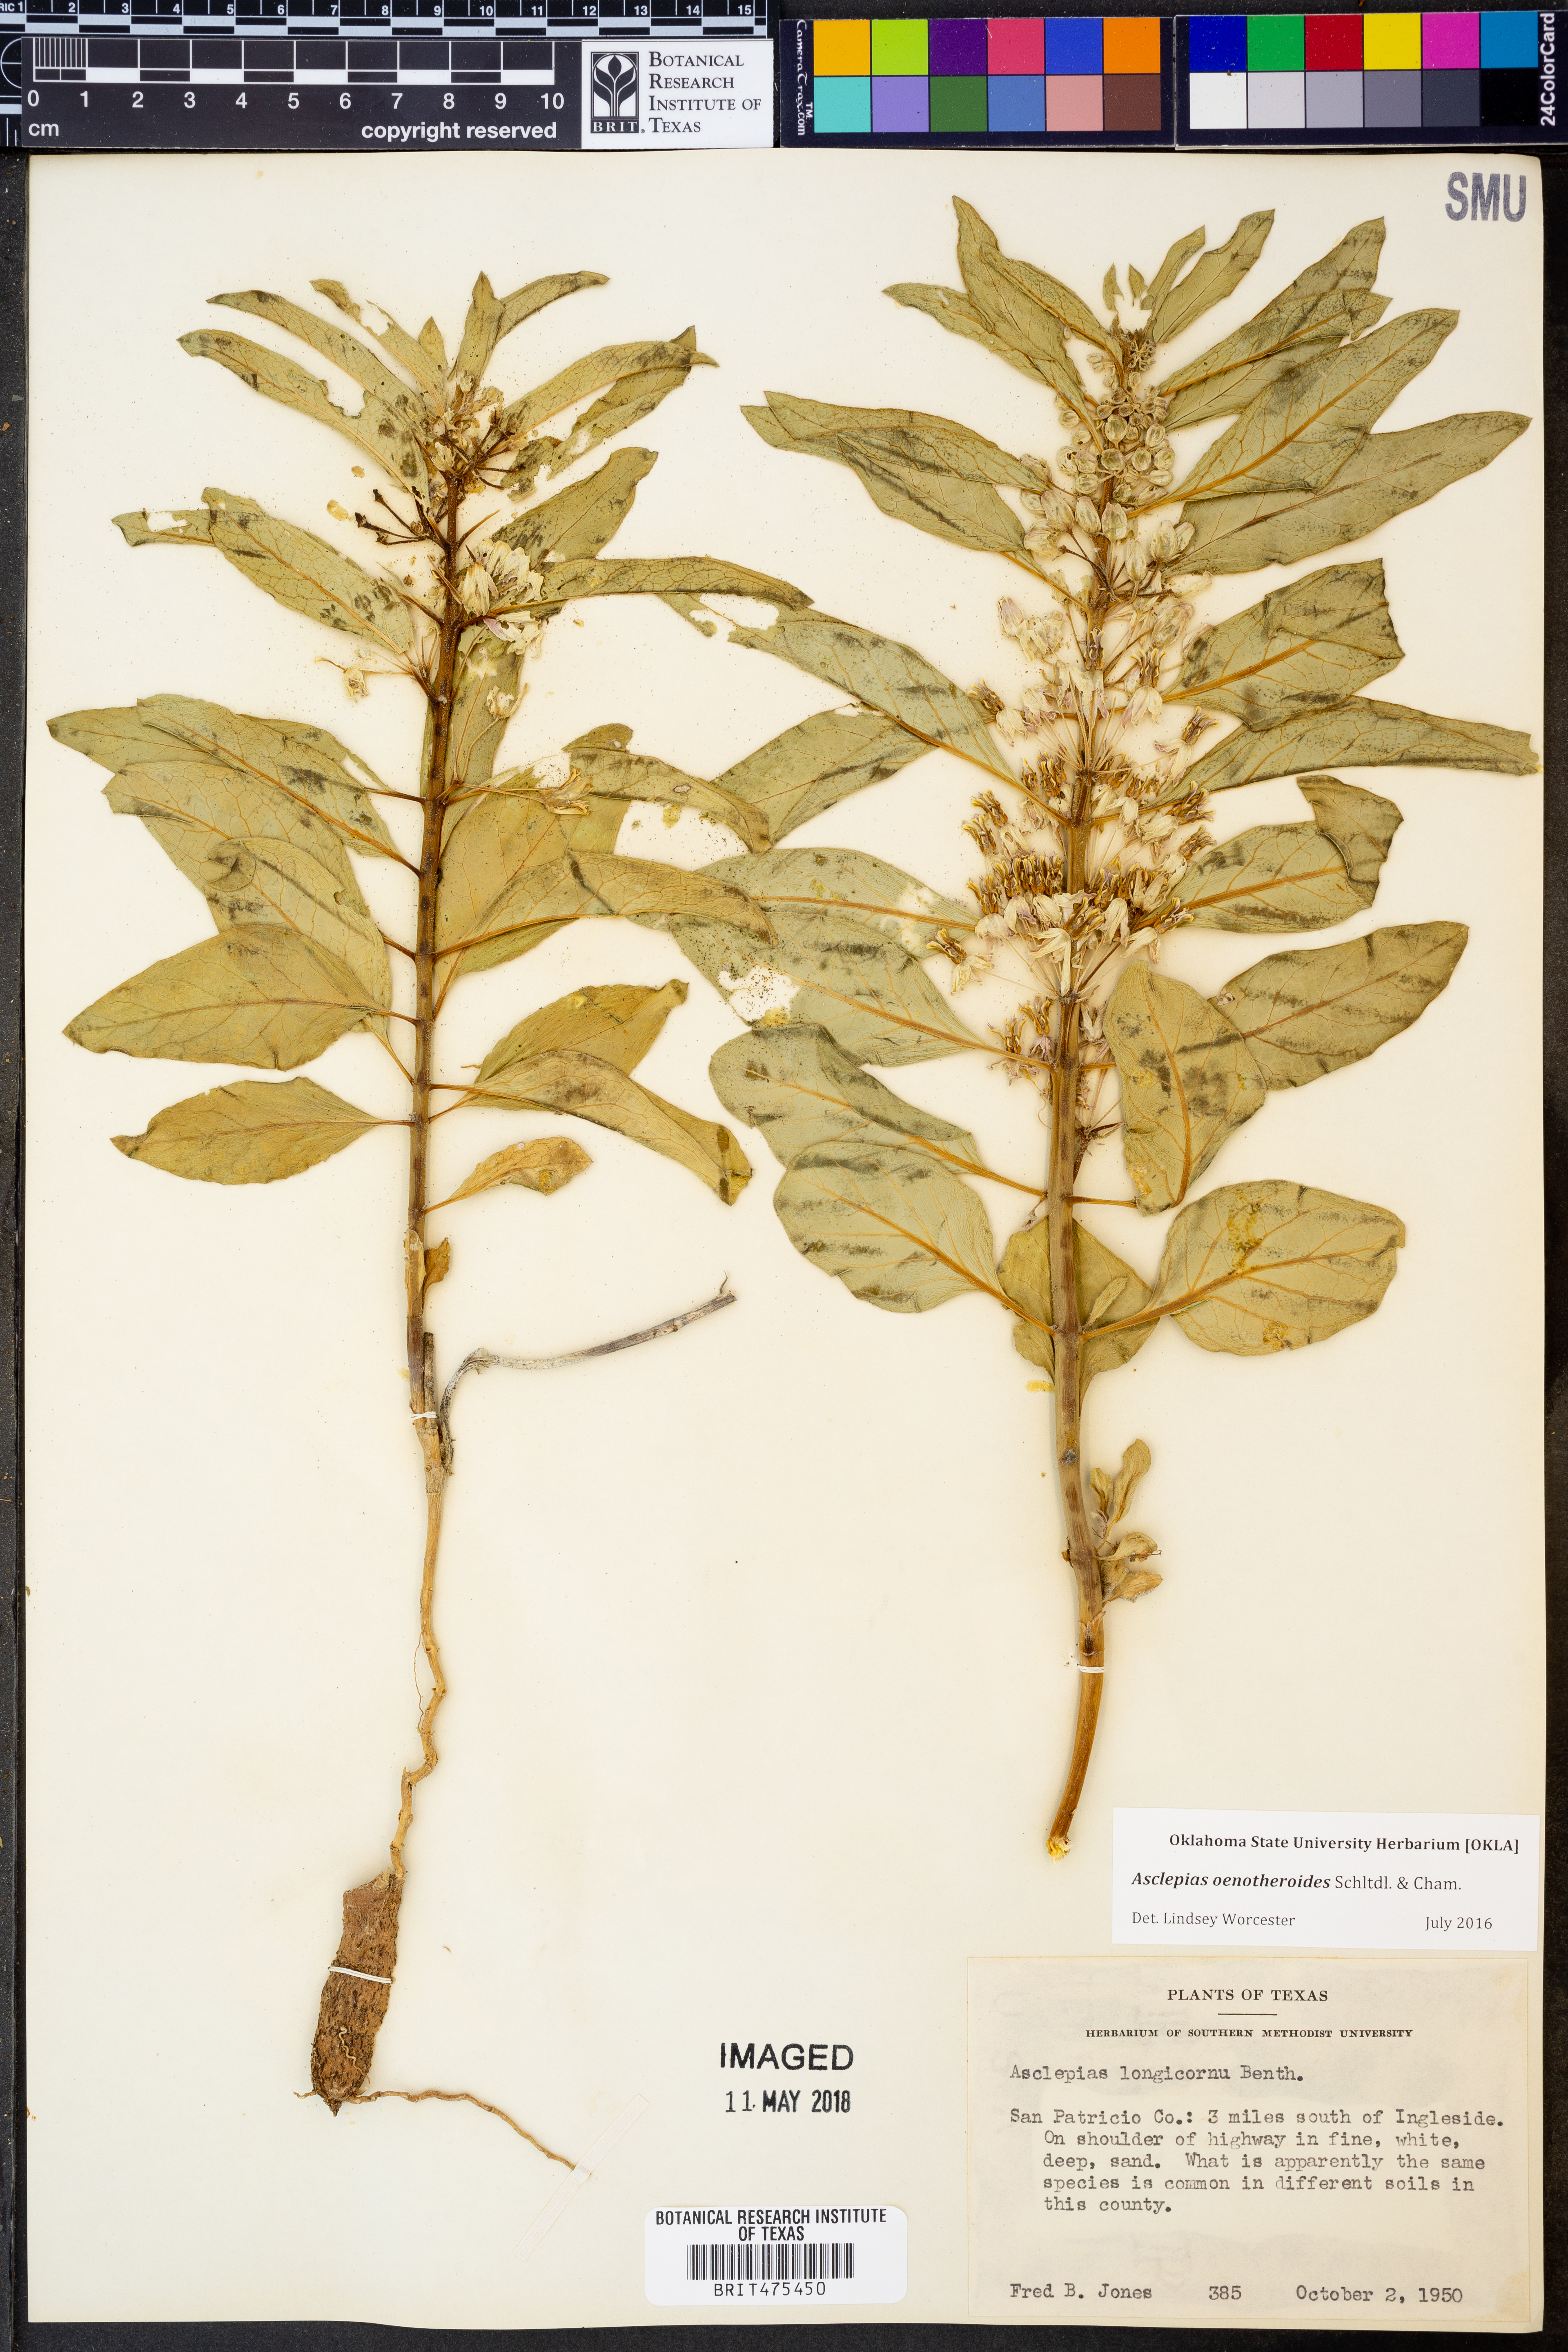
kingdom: Plantae
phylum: Tracheophyta
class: Magnoliopsida
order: Gentianales
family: Apocynaceae
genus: Asclepias
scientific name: Asclepias oenotheroides
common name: Zizotes milkweed
